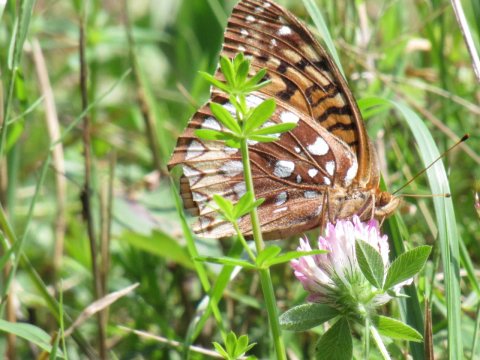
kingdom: Animalia
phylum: Arthropoda
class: Insecta
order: Lepidoptera
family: Nymphalidae
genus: Speyeria
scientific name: Speyeria cybele
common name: Great Spangled Fritillary
